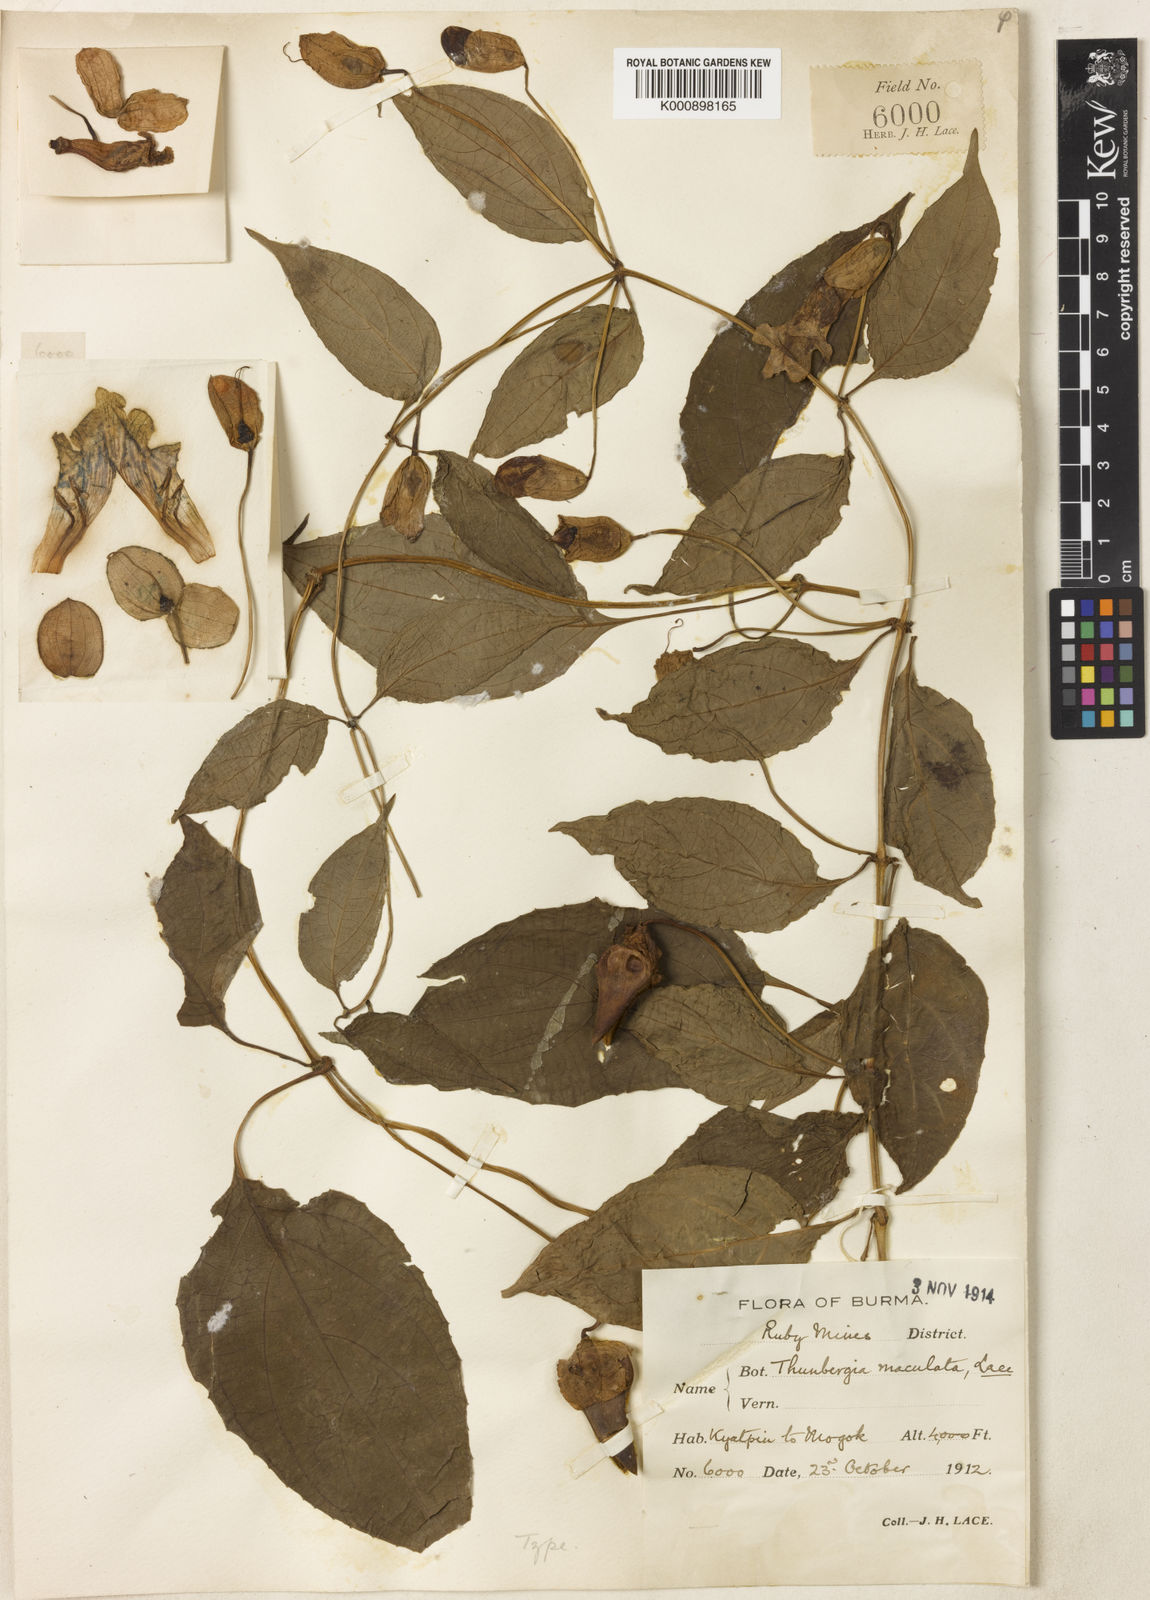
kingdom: Plantae
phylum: Tracheophyta
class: Magnoliopsida
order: Lamiales
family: Acanthaceae
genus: Thunbergia
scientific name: Thunbergia lutea
